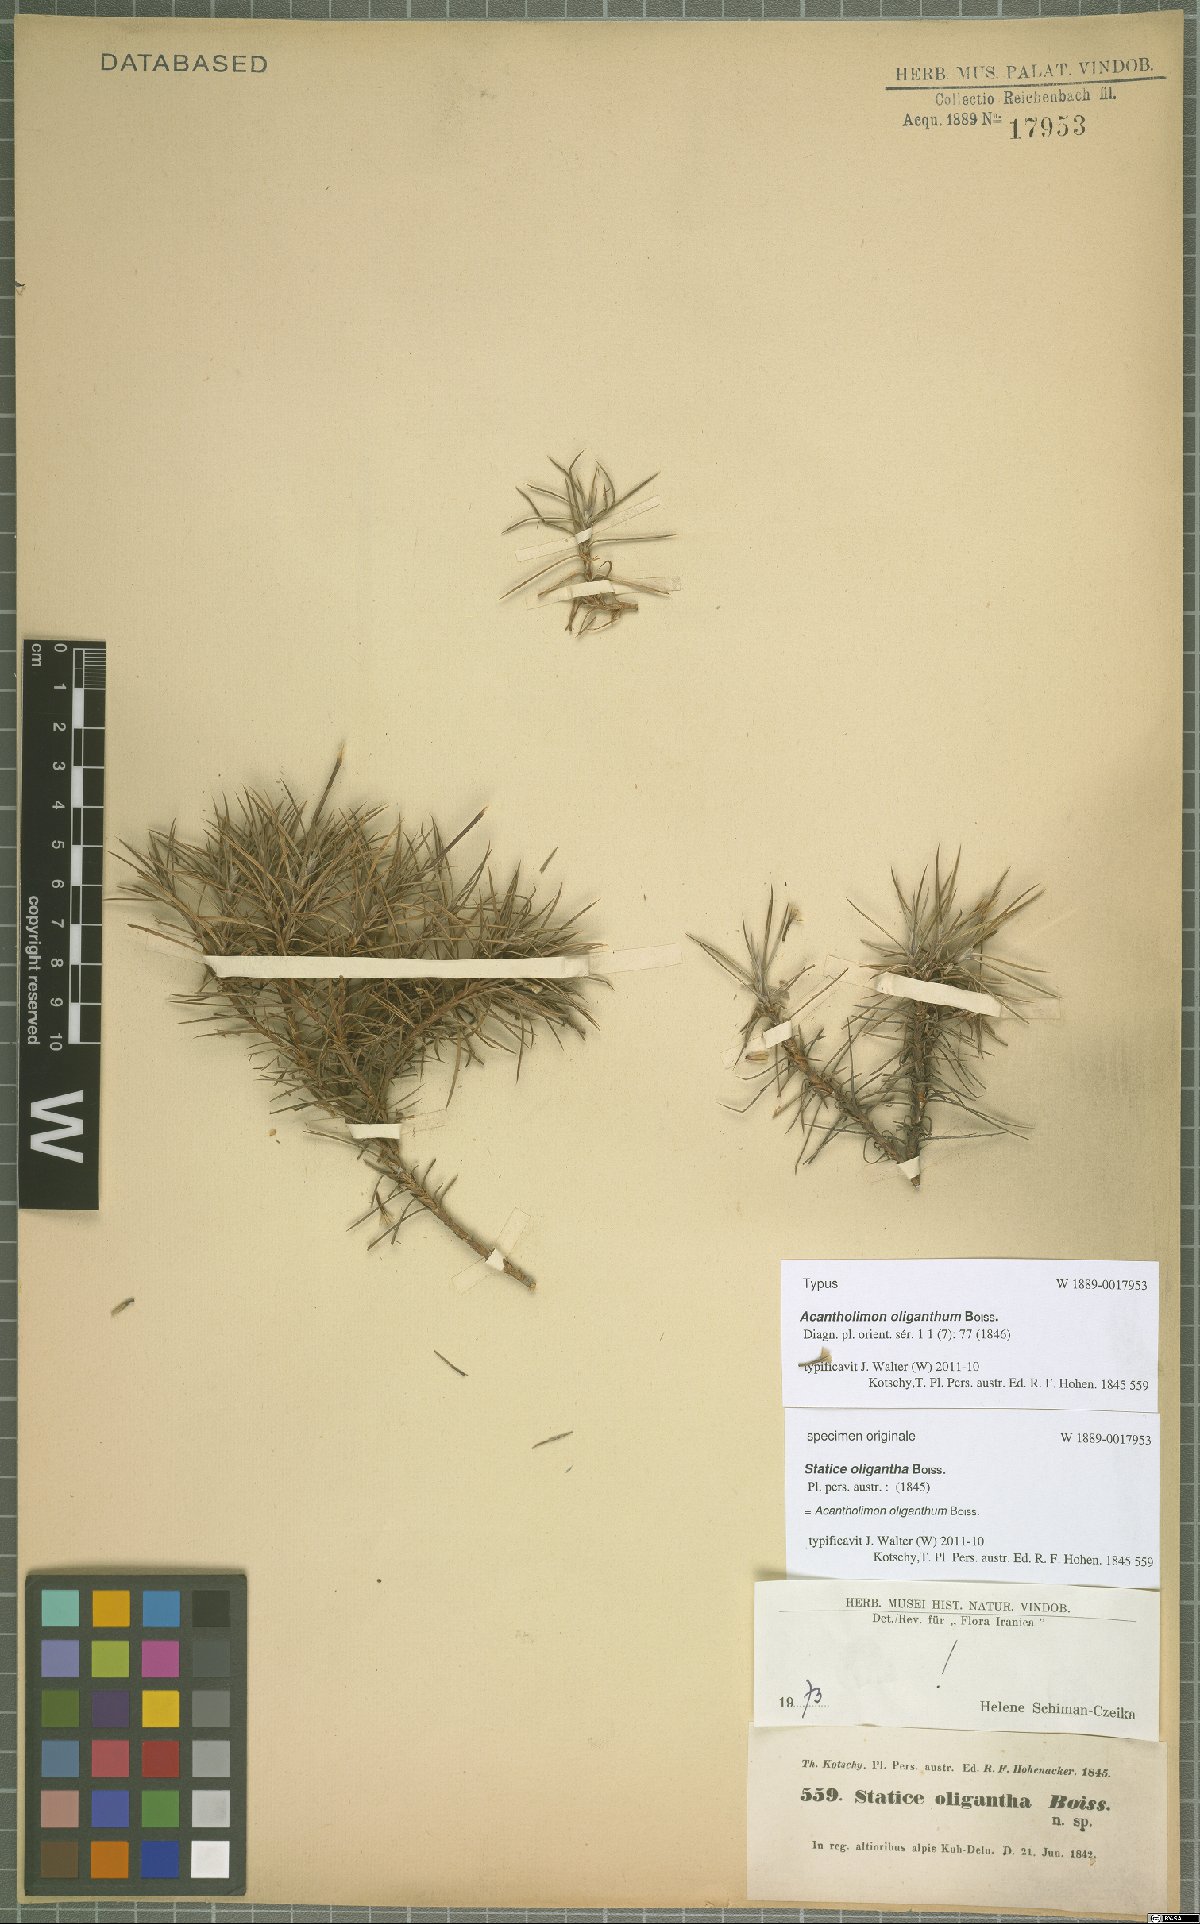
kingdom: Plantae
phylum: Tracheophyta
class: Magnoliopsida
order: Caryophyllales
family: Plumbaginaceae
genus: Acantholimon
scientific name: Acantholimon oliganthum
